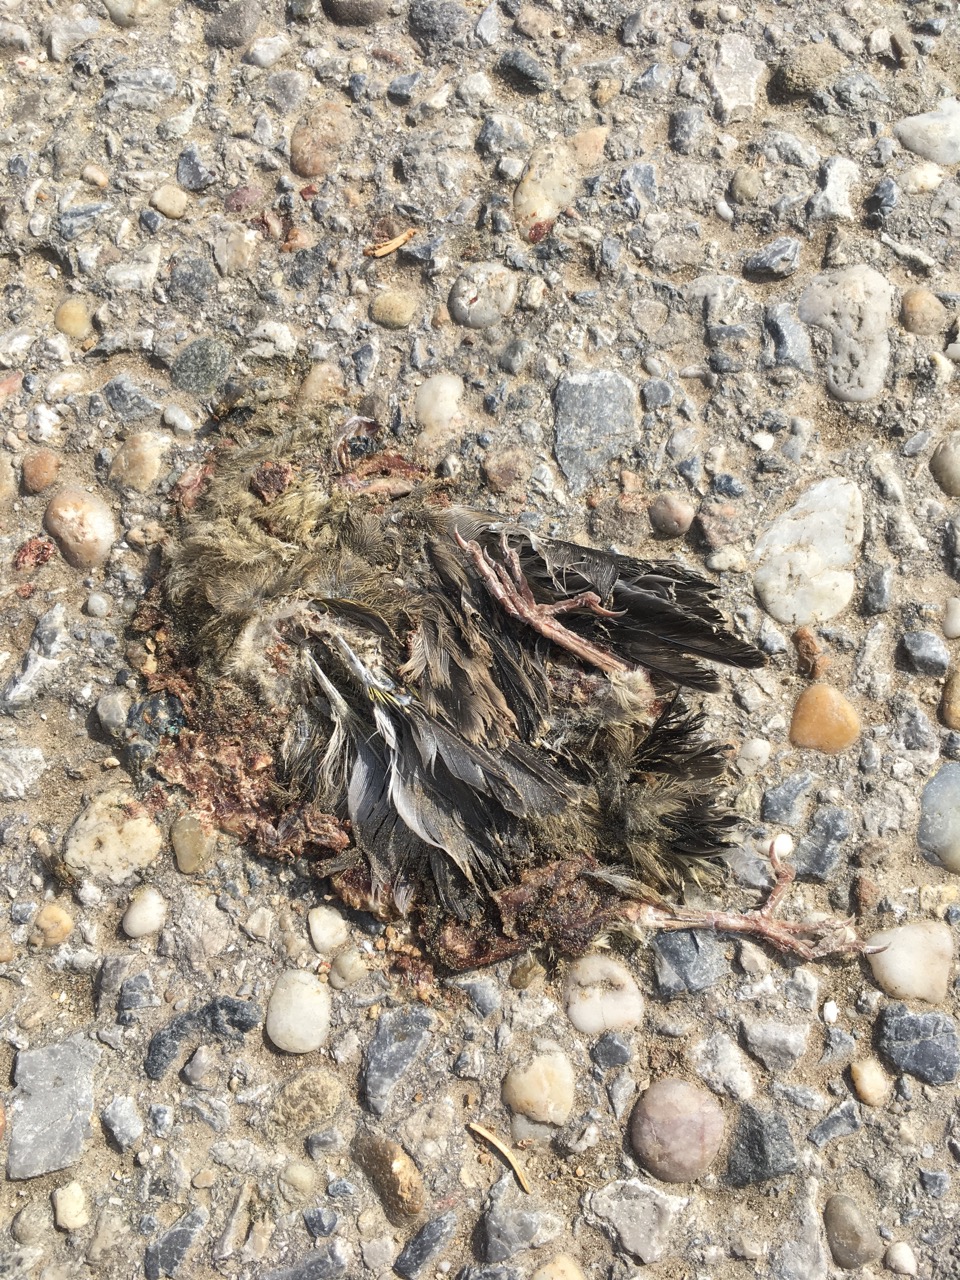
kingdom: Animalia
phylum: Chordata
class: Aves
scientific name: Aves
